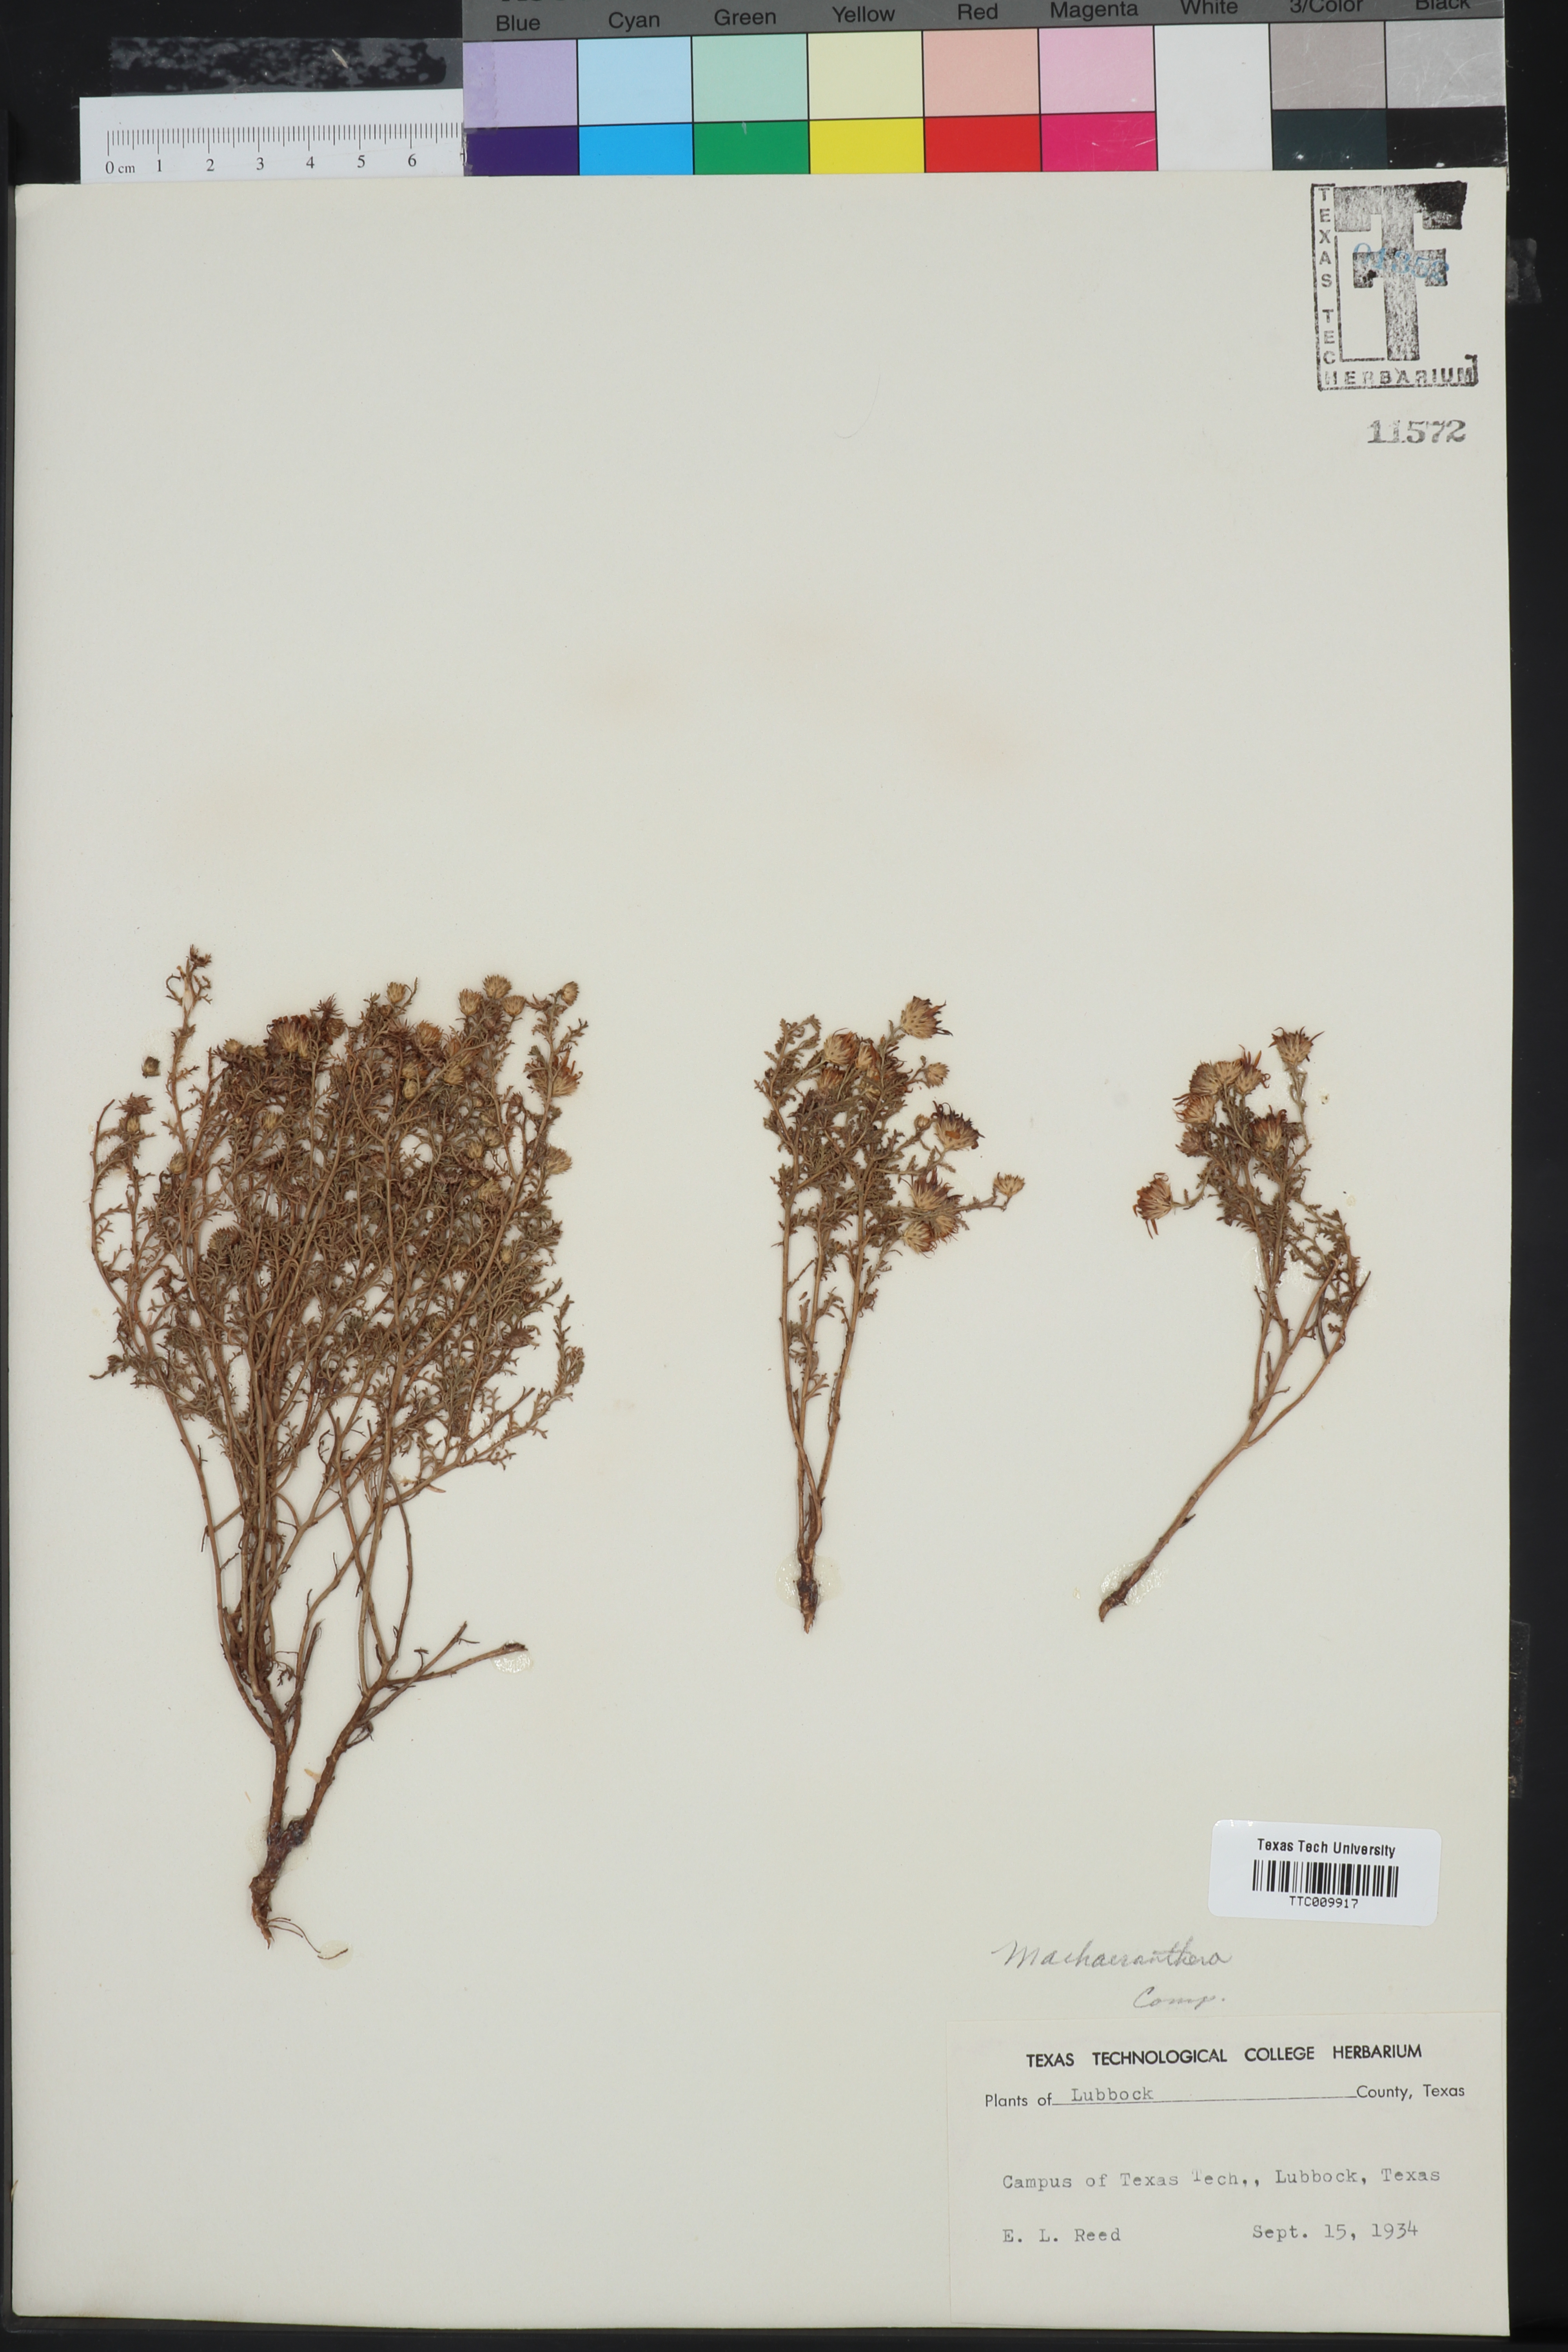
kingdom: Plantae
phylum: Tracheophyta
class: Magnoliopsida
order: Asterales
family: Asteraceae
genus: Machaeranthera
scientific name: Machaeranthera
